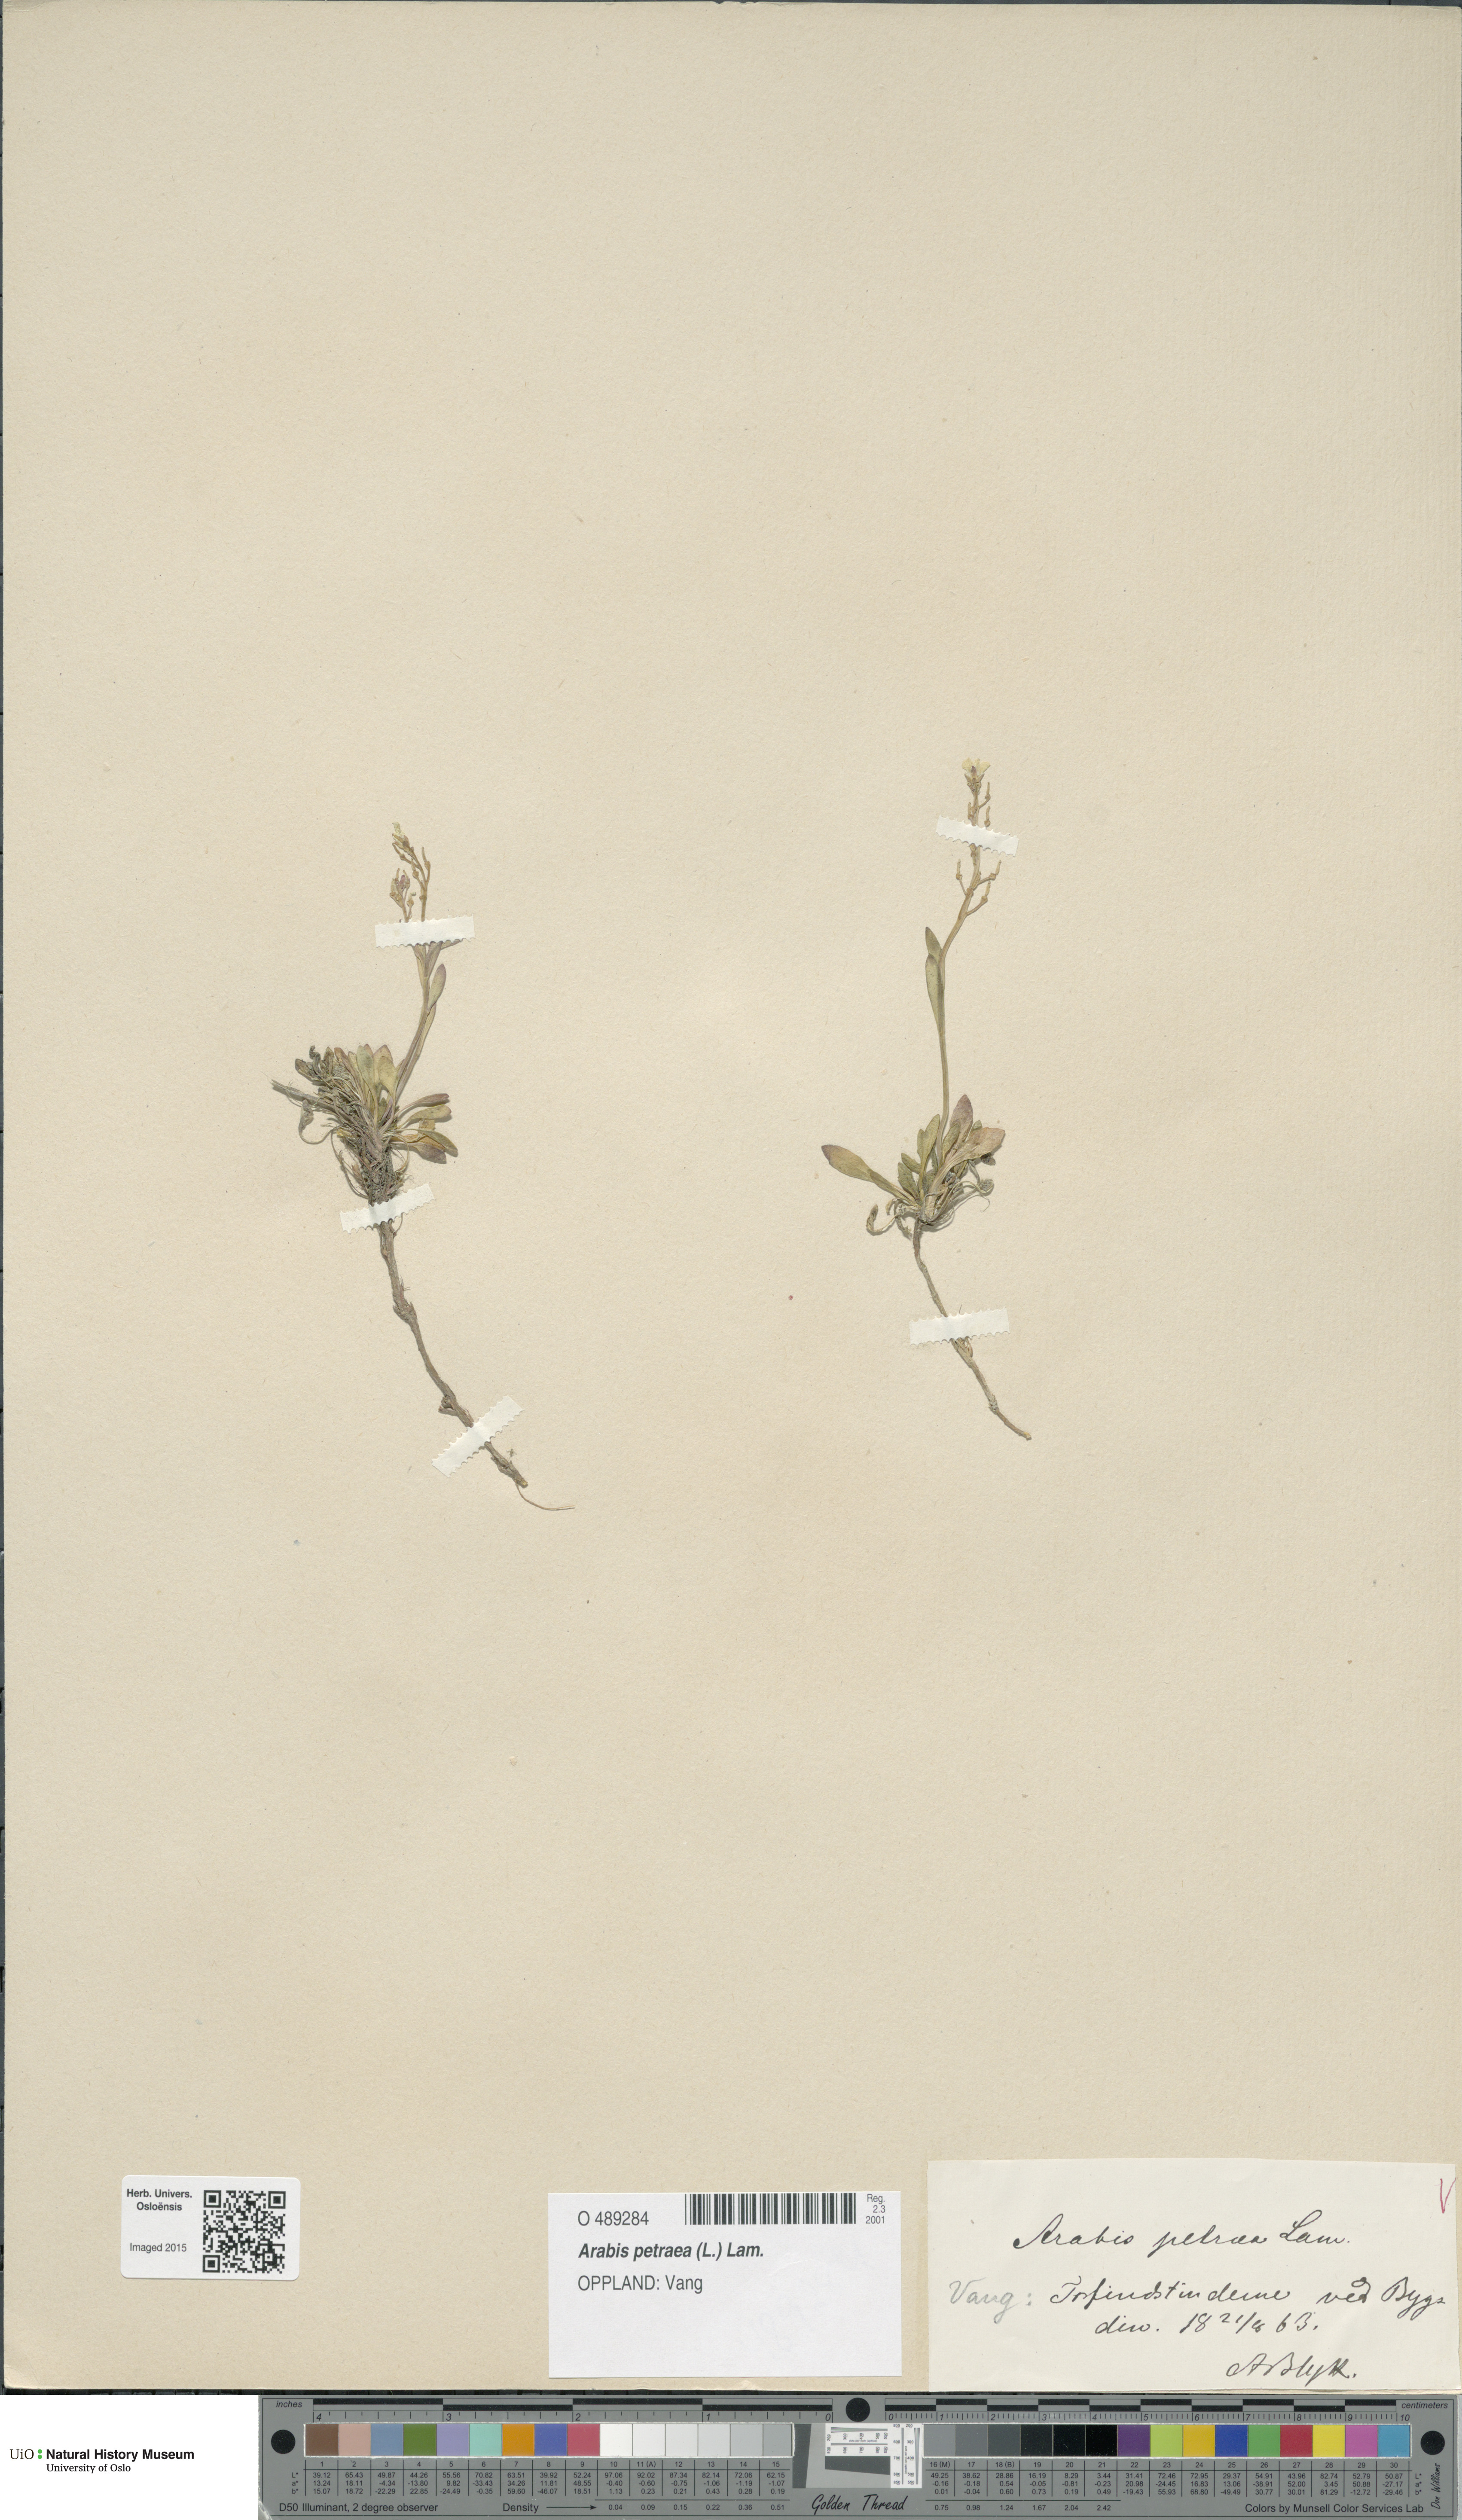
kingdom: Plantae
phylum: Tracheophyta
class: Magnoliopsida
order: Brassicales
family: Brassicaceae
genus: Arabidopsis
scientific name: Arabidopsis petraea
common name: Northern rock-cress
